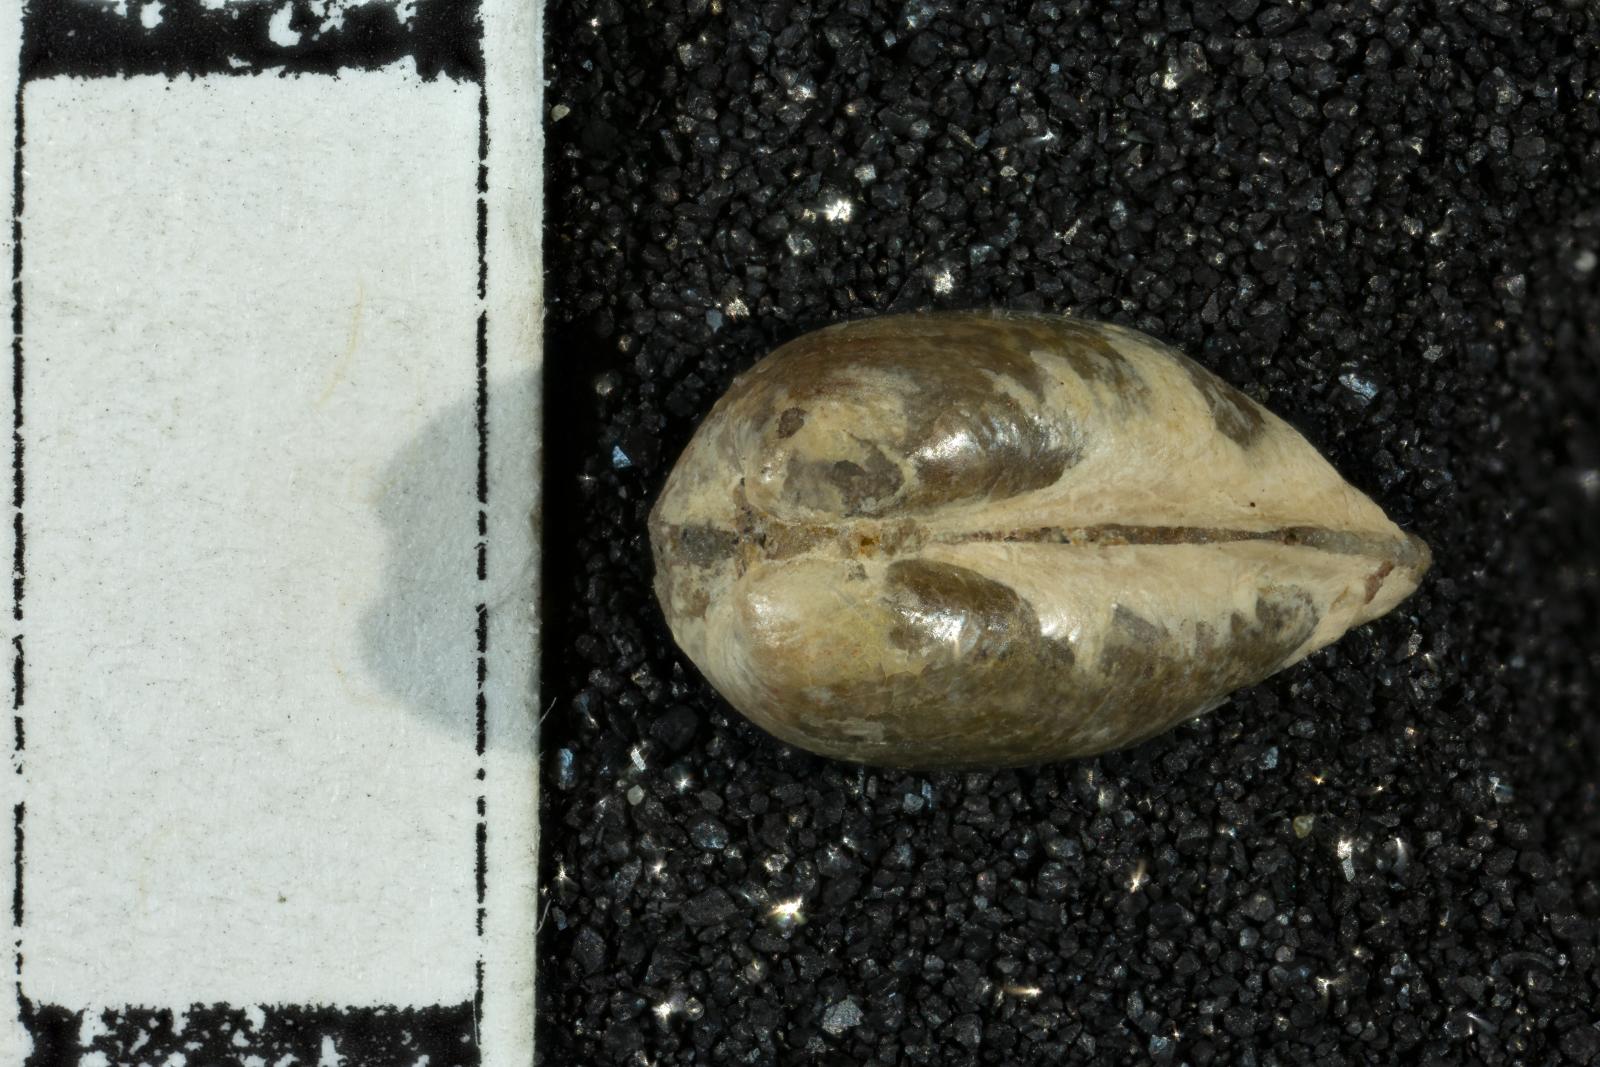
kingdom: Animalia
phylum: Mollusca
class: Bivalvia
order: Mytilida
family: Mytilidae
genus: Lithophaga
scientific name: Lithophaga
